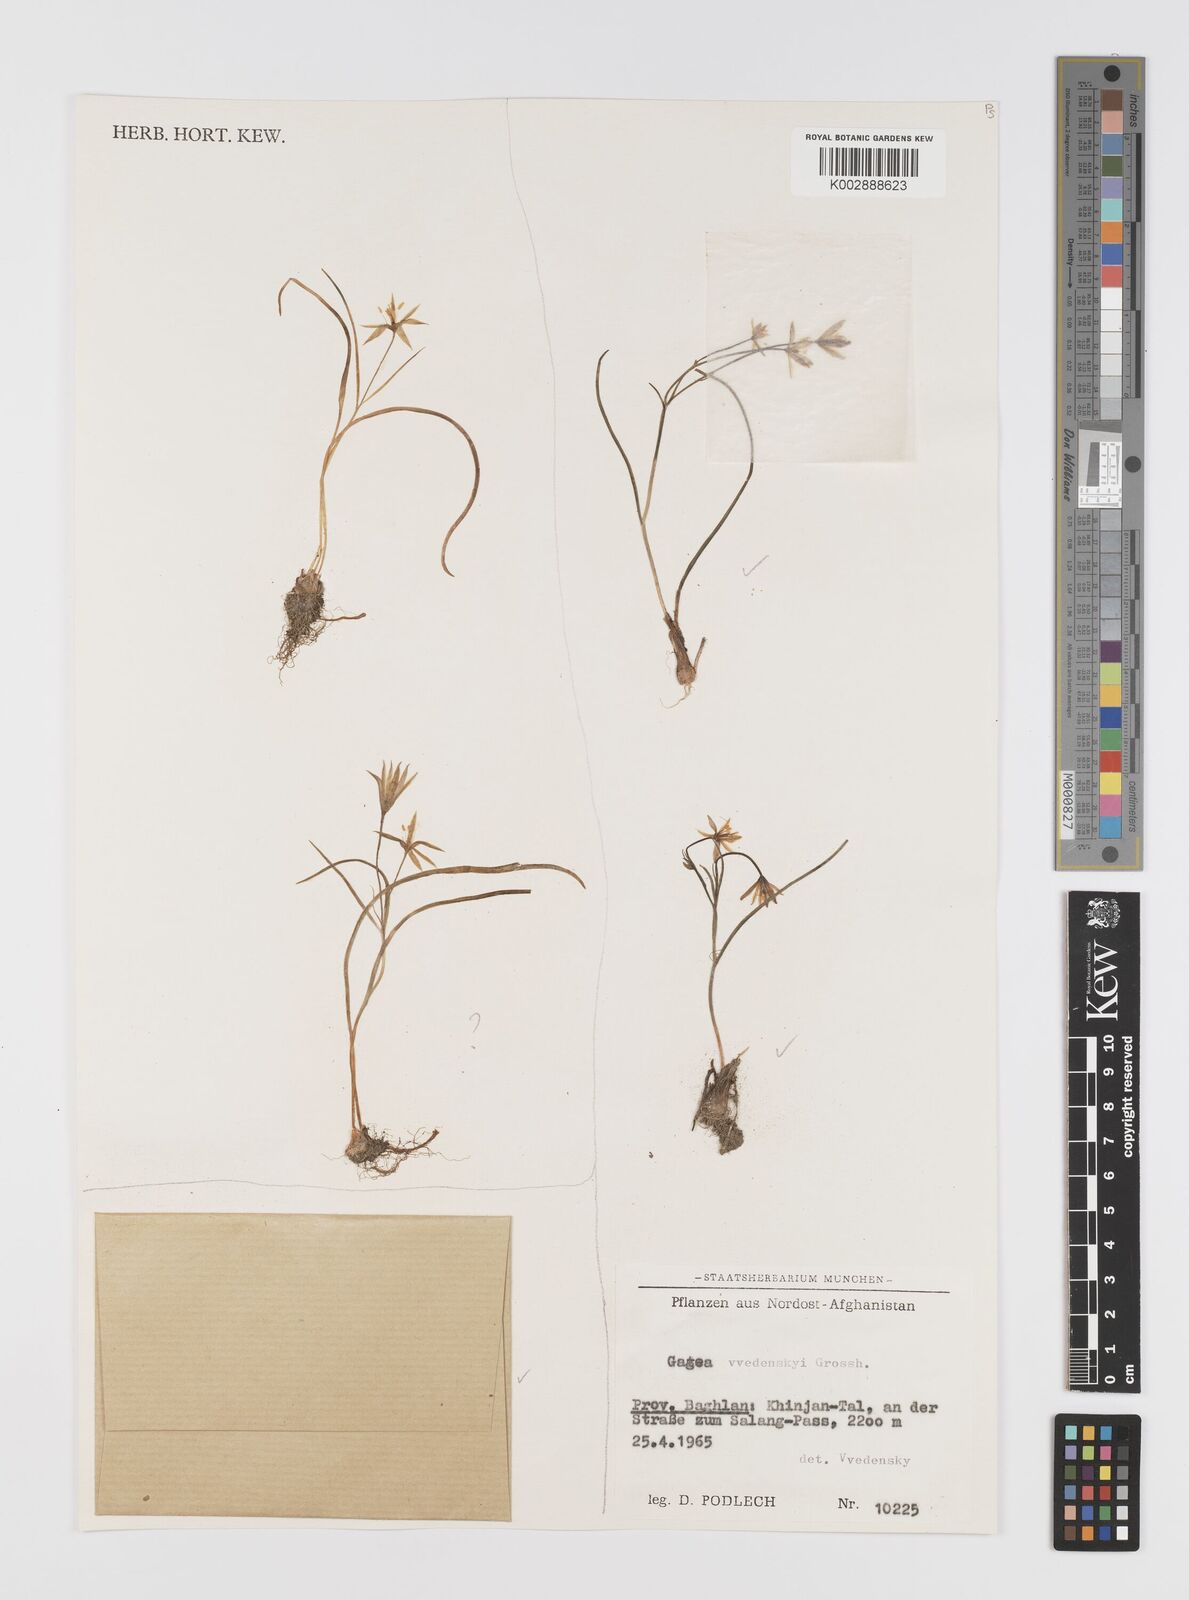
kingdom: Plantae
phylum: Tracheophyta
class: Liliopsida
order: Liliales
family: Liliaceae
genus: Gagea
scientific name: Gagea vvedenskyi
